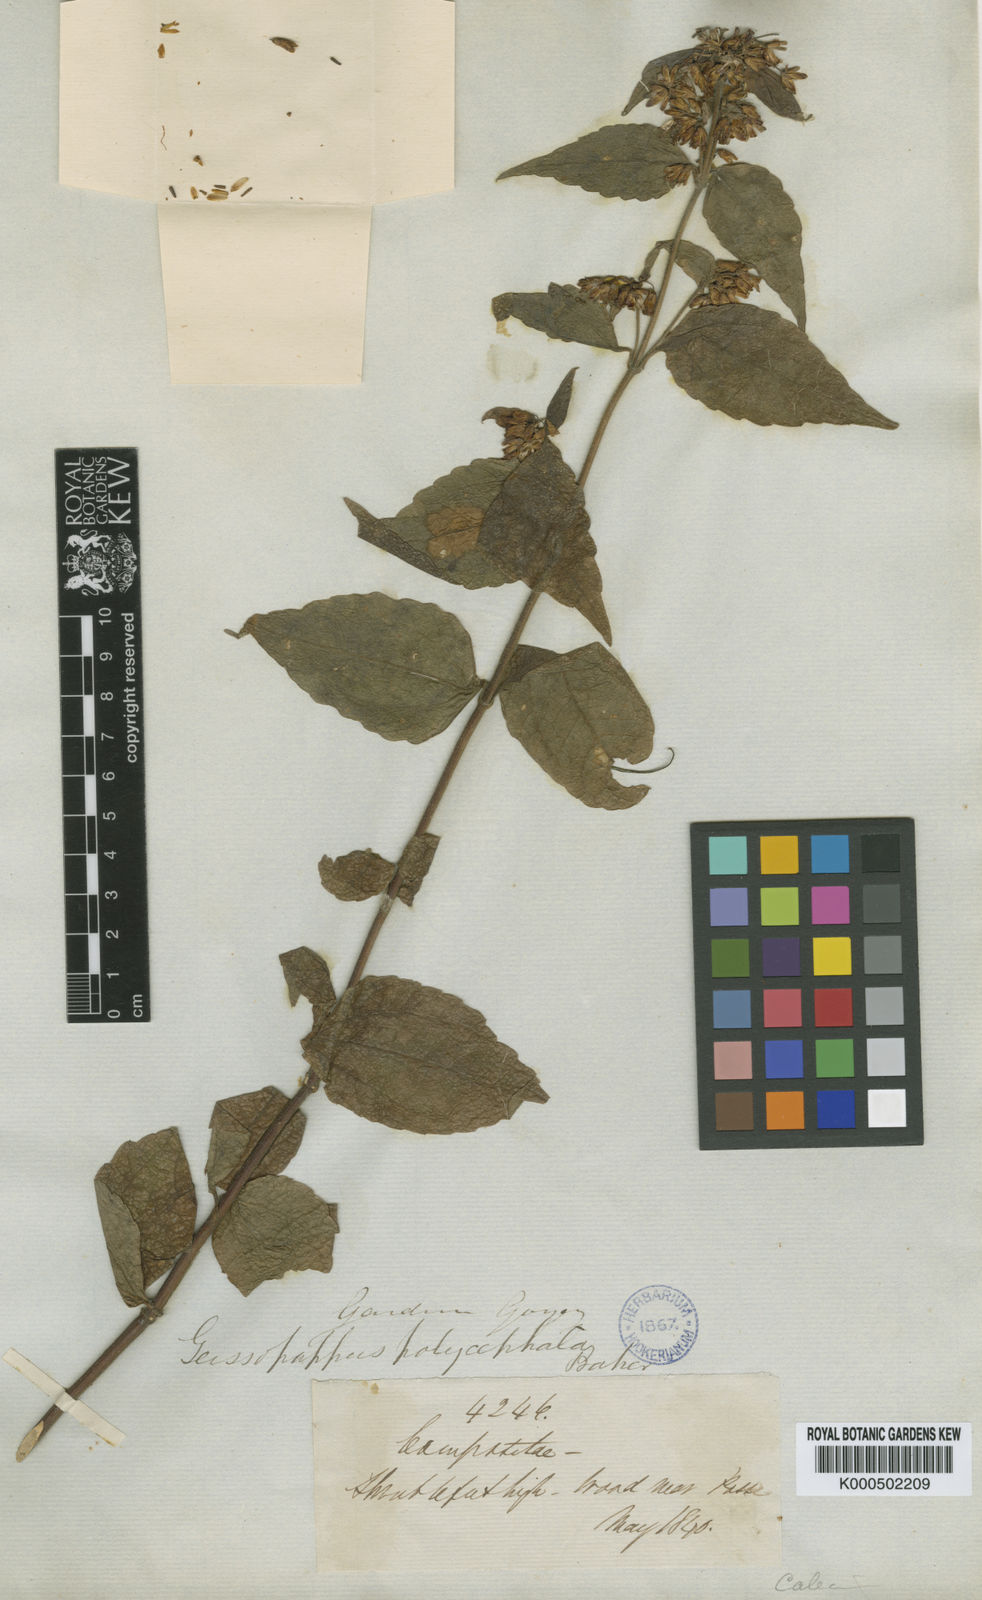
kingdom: Plantae
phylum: Tracheophyta
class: Magnoliopsida
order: Asterales
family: Asteraceae
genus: Calea
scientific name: Calea polycephala
